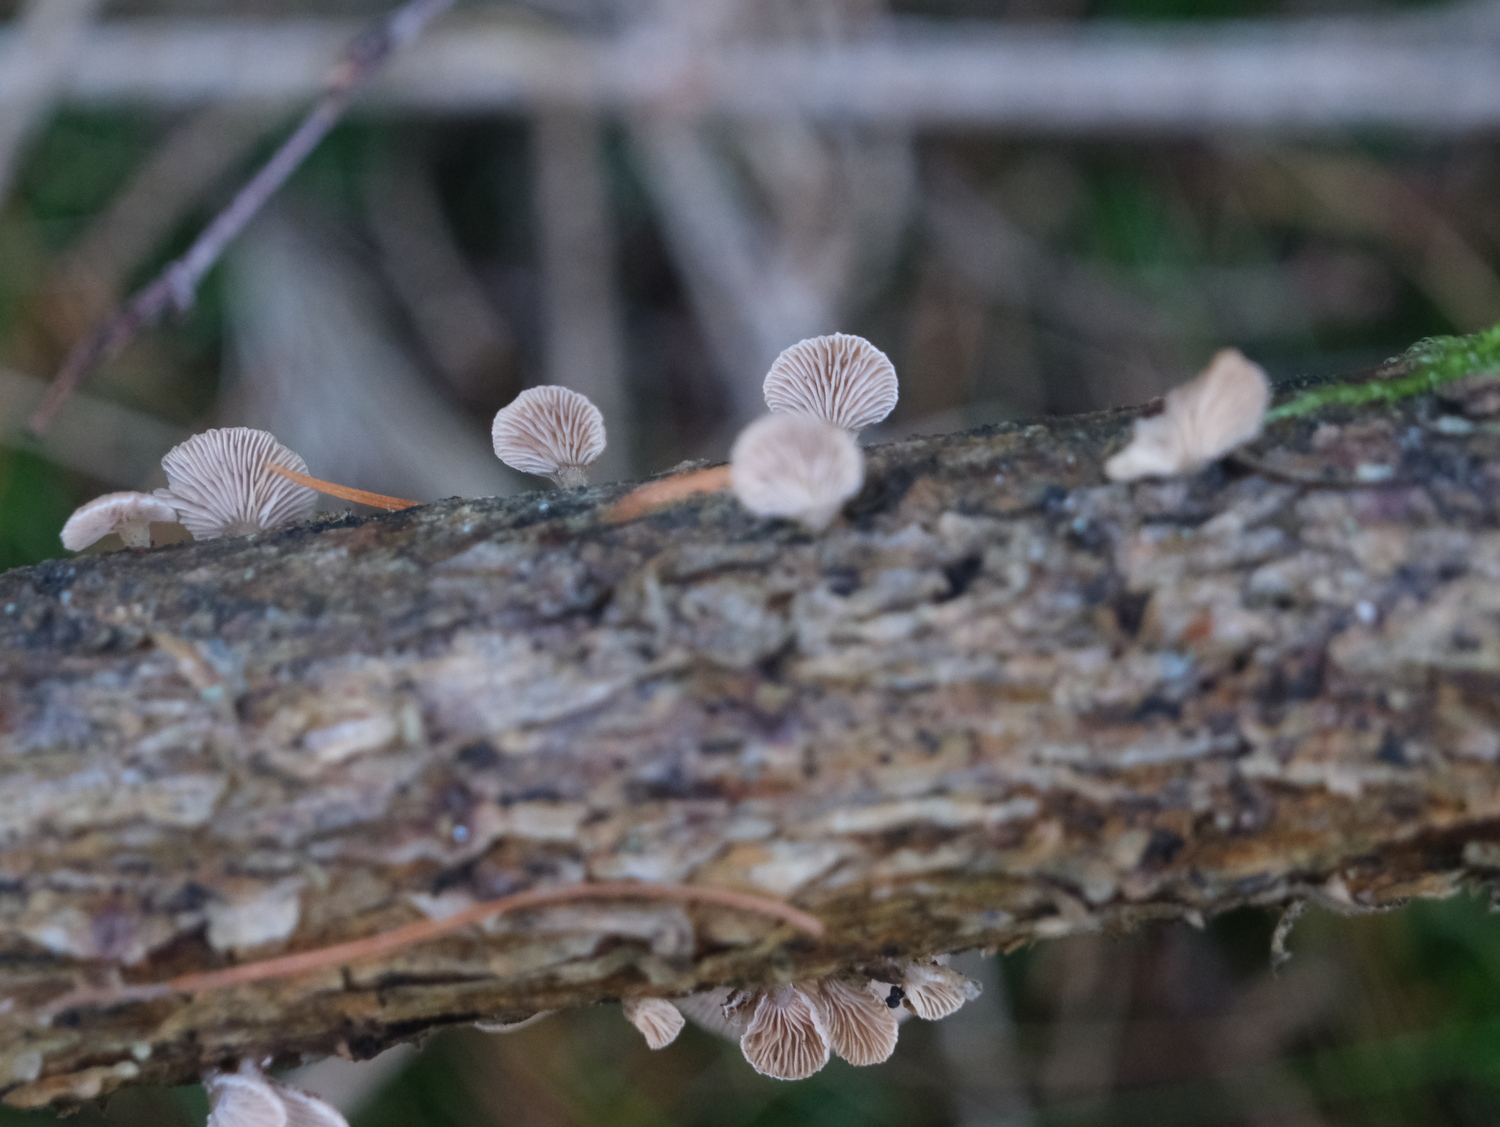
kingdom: Fungi
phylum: Basidiomycota
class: Agaricomycetes
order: Agaricales
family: Mycenaceae
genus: Panellus
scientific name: Panellus mitis
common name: mild epaulethat
